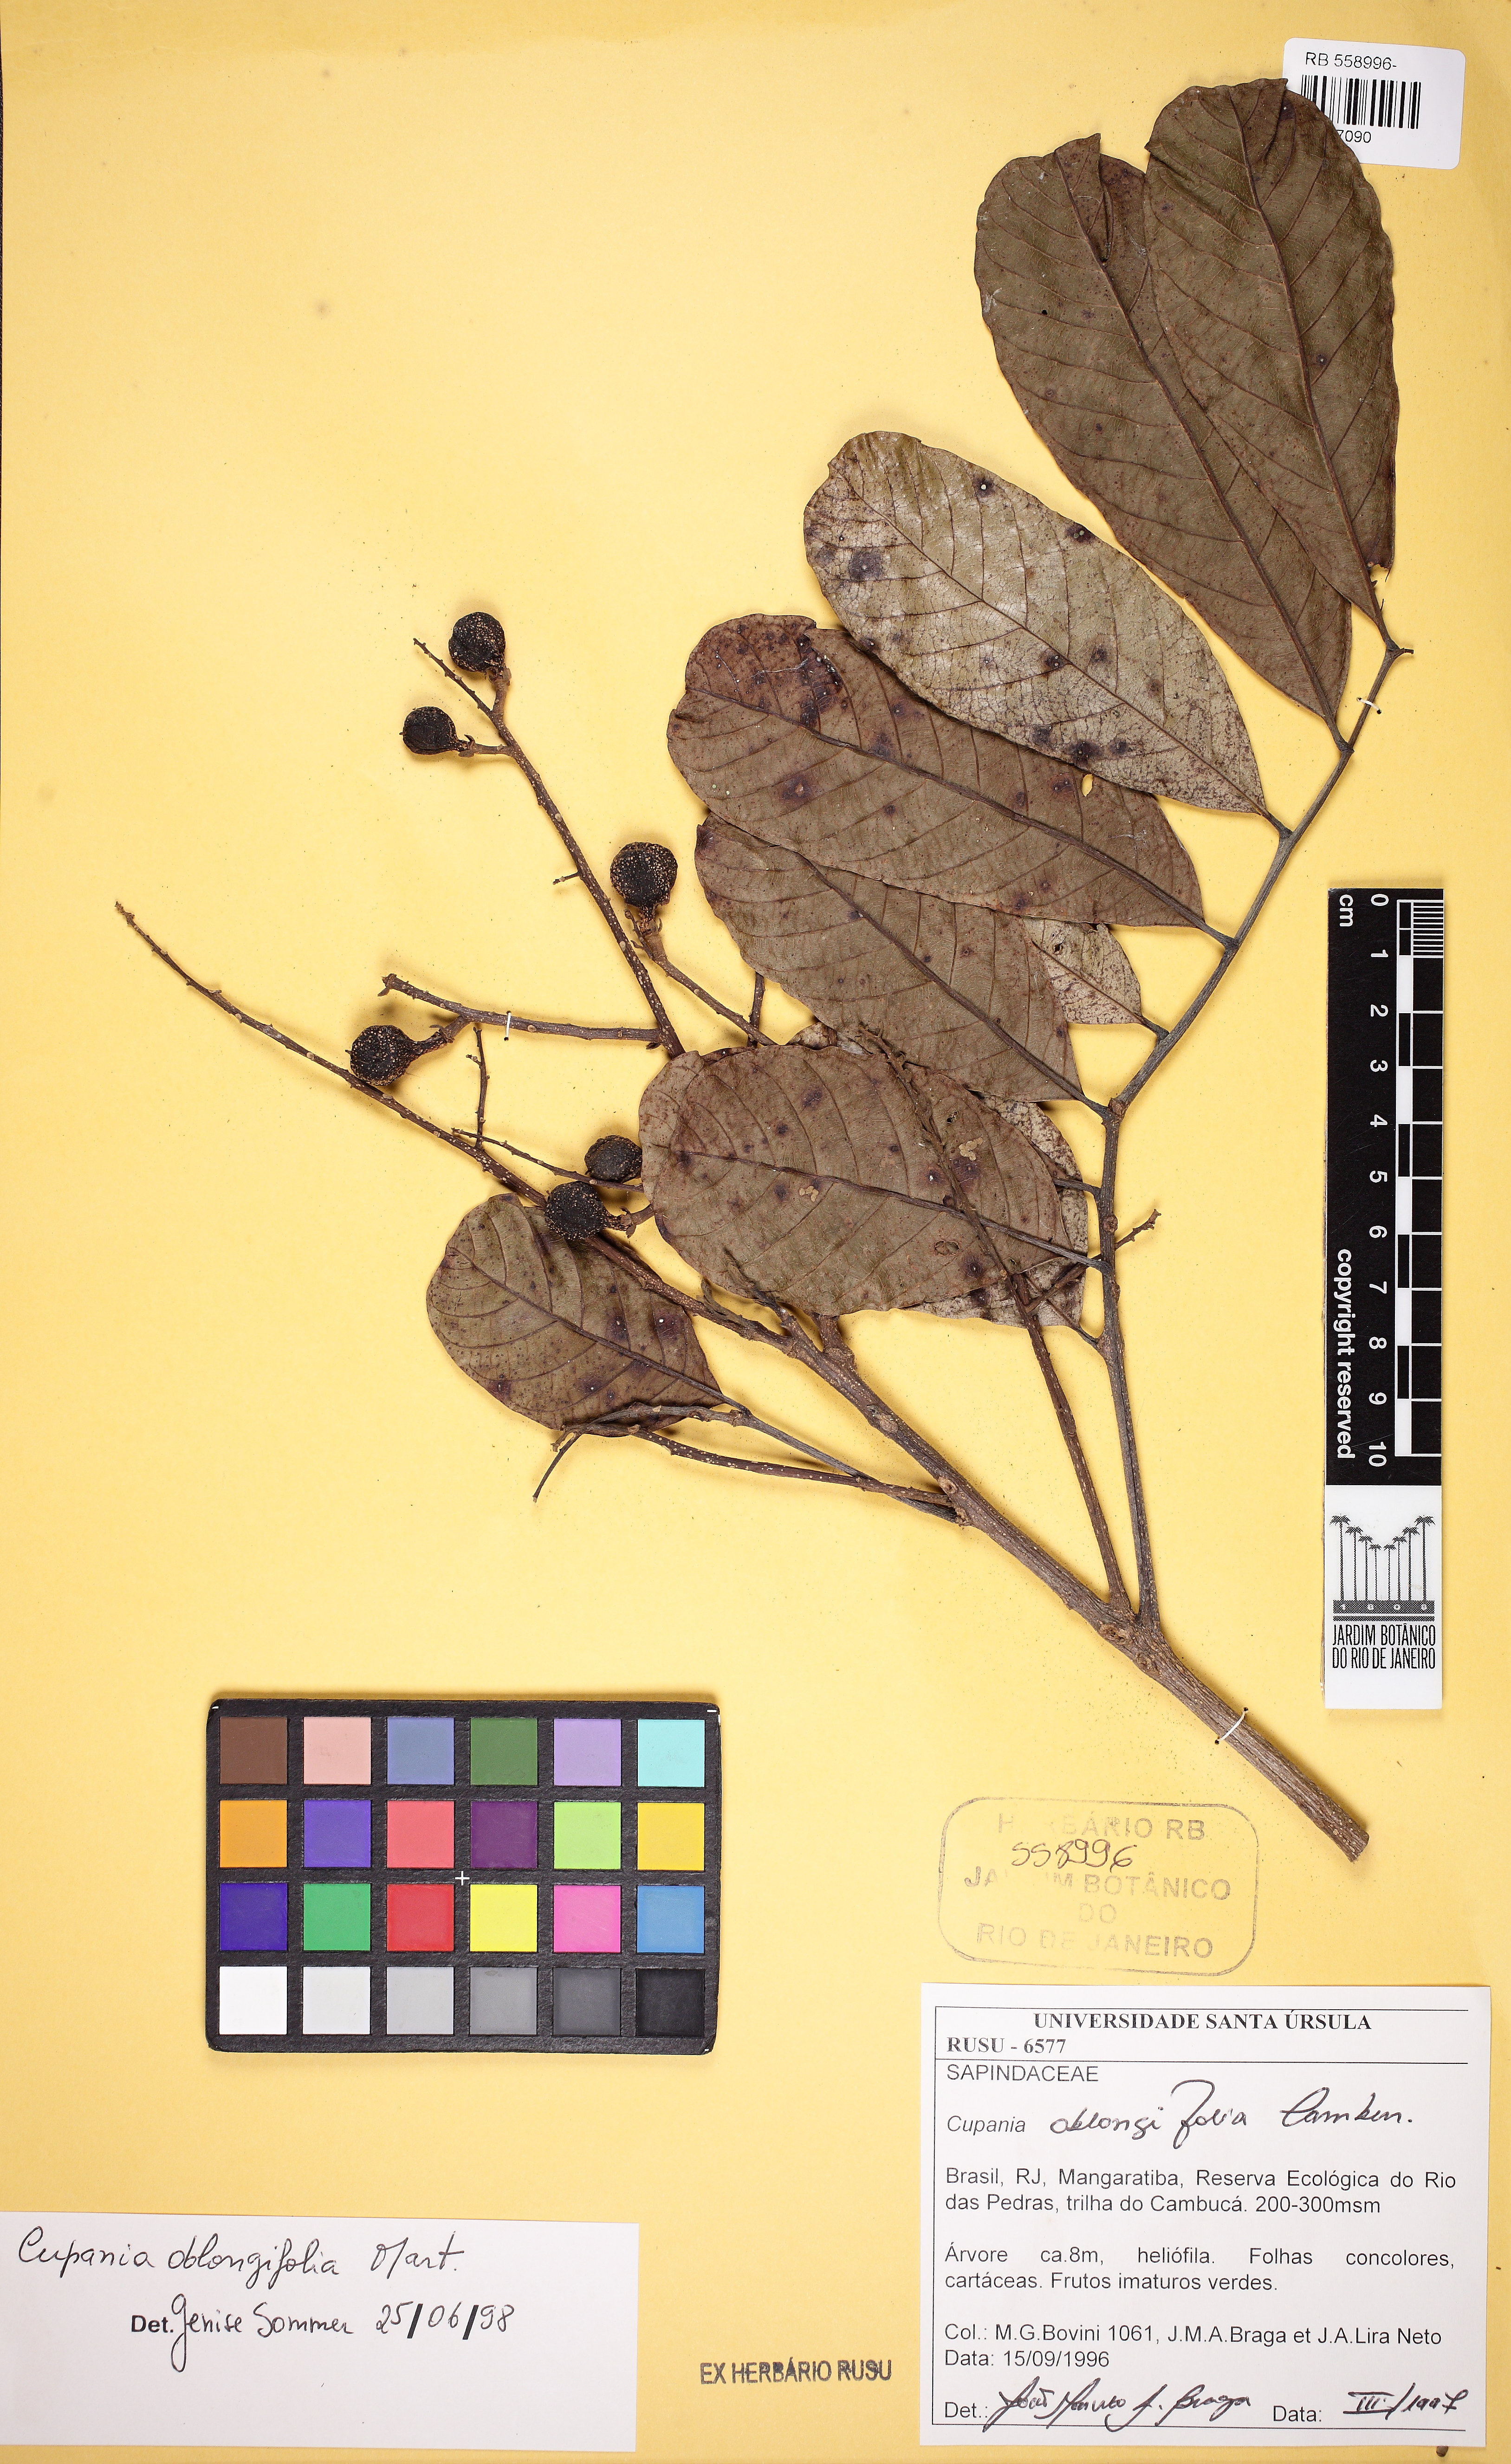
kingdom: Plantae
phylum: Tracheophyta
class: Magnoliopsida
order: Sapindales
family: Sapindaceae
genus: Cupania
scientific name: Cupania oblongifolia
